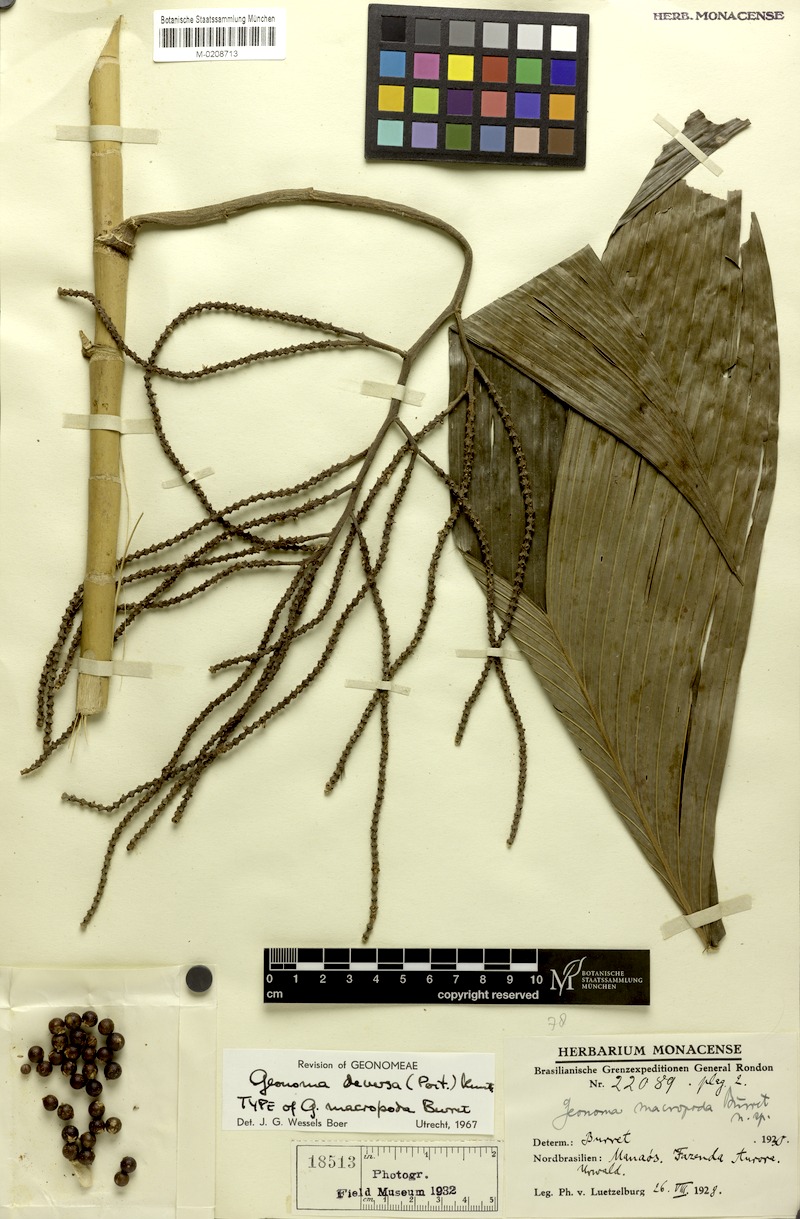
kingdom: Plantae
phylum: Tracheophyta
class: Liliopsida
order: Arecales
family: Arecaceae
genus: Geonoma
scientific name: Geonoma deversa
